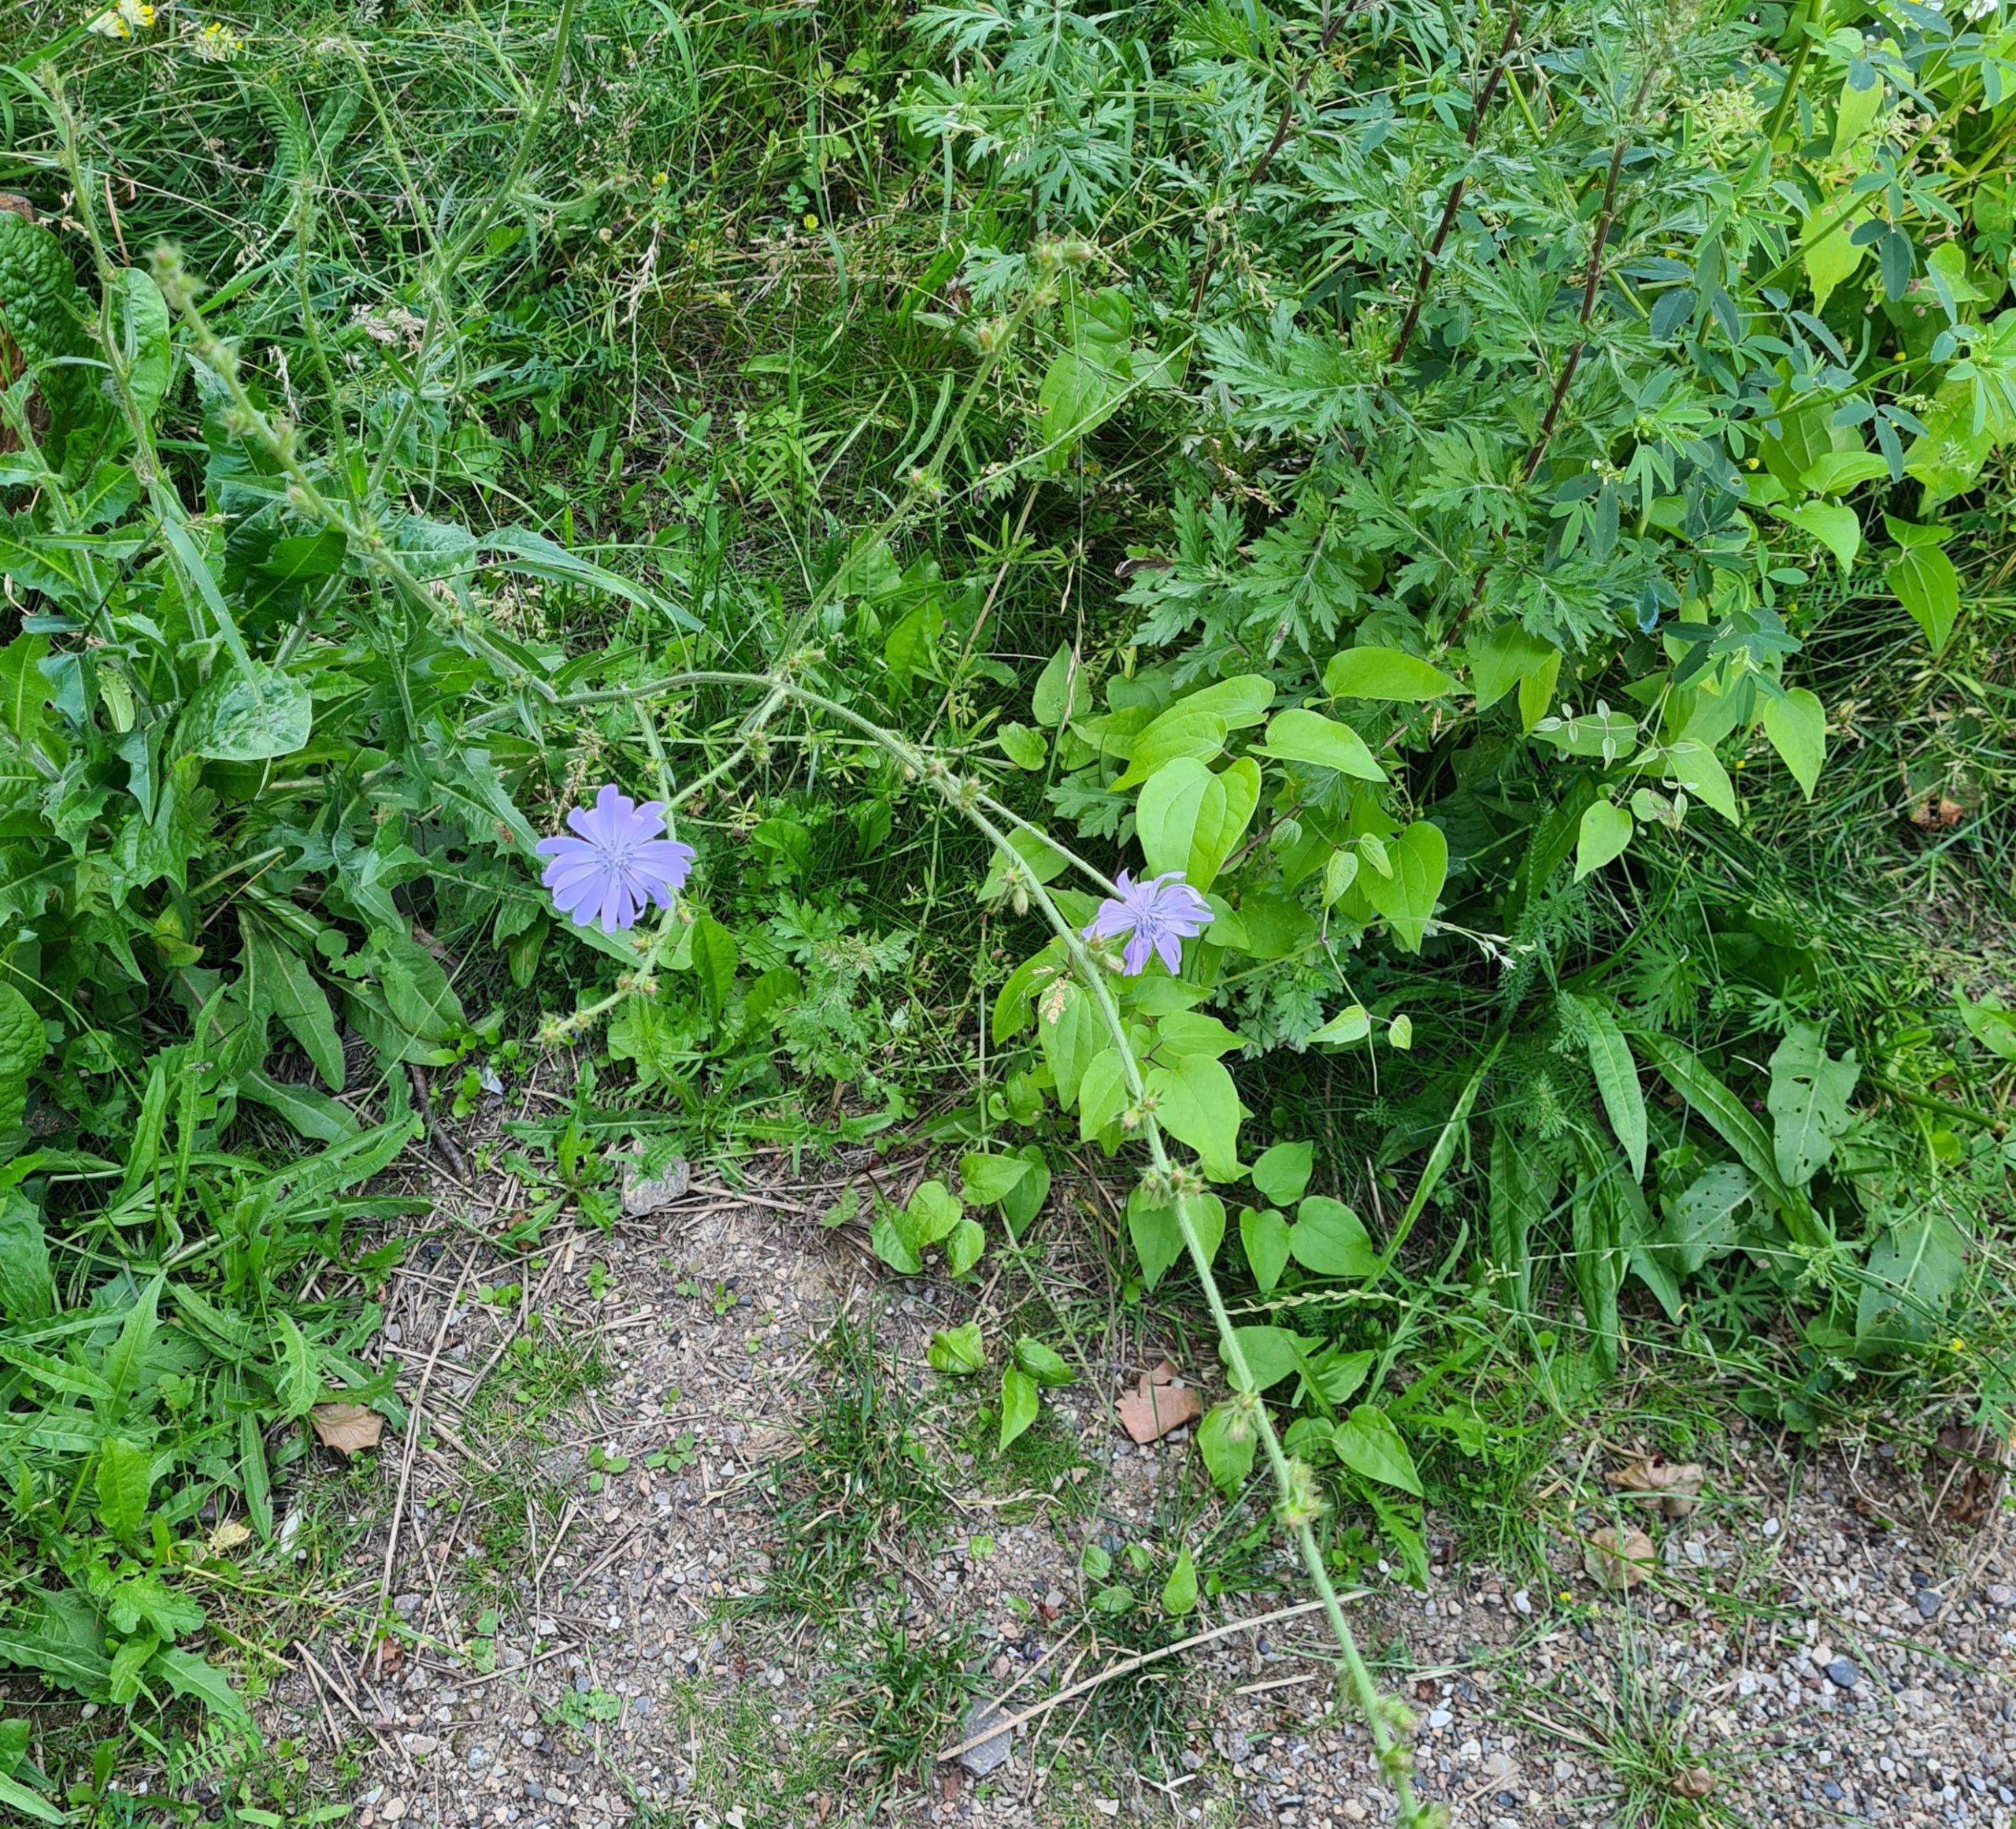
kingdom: Plantae
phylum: Tracheophyta
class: Magnoliopsida
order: Asterales
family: Asteraceae
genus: Cichorium
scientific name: Cichorium intybus
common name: Cikorie
